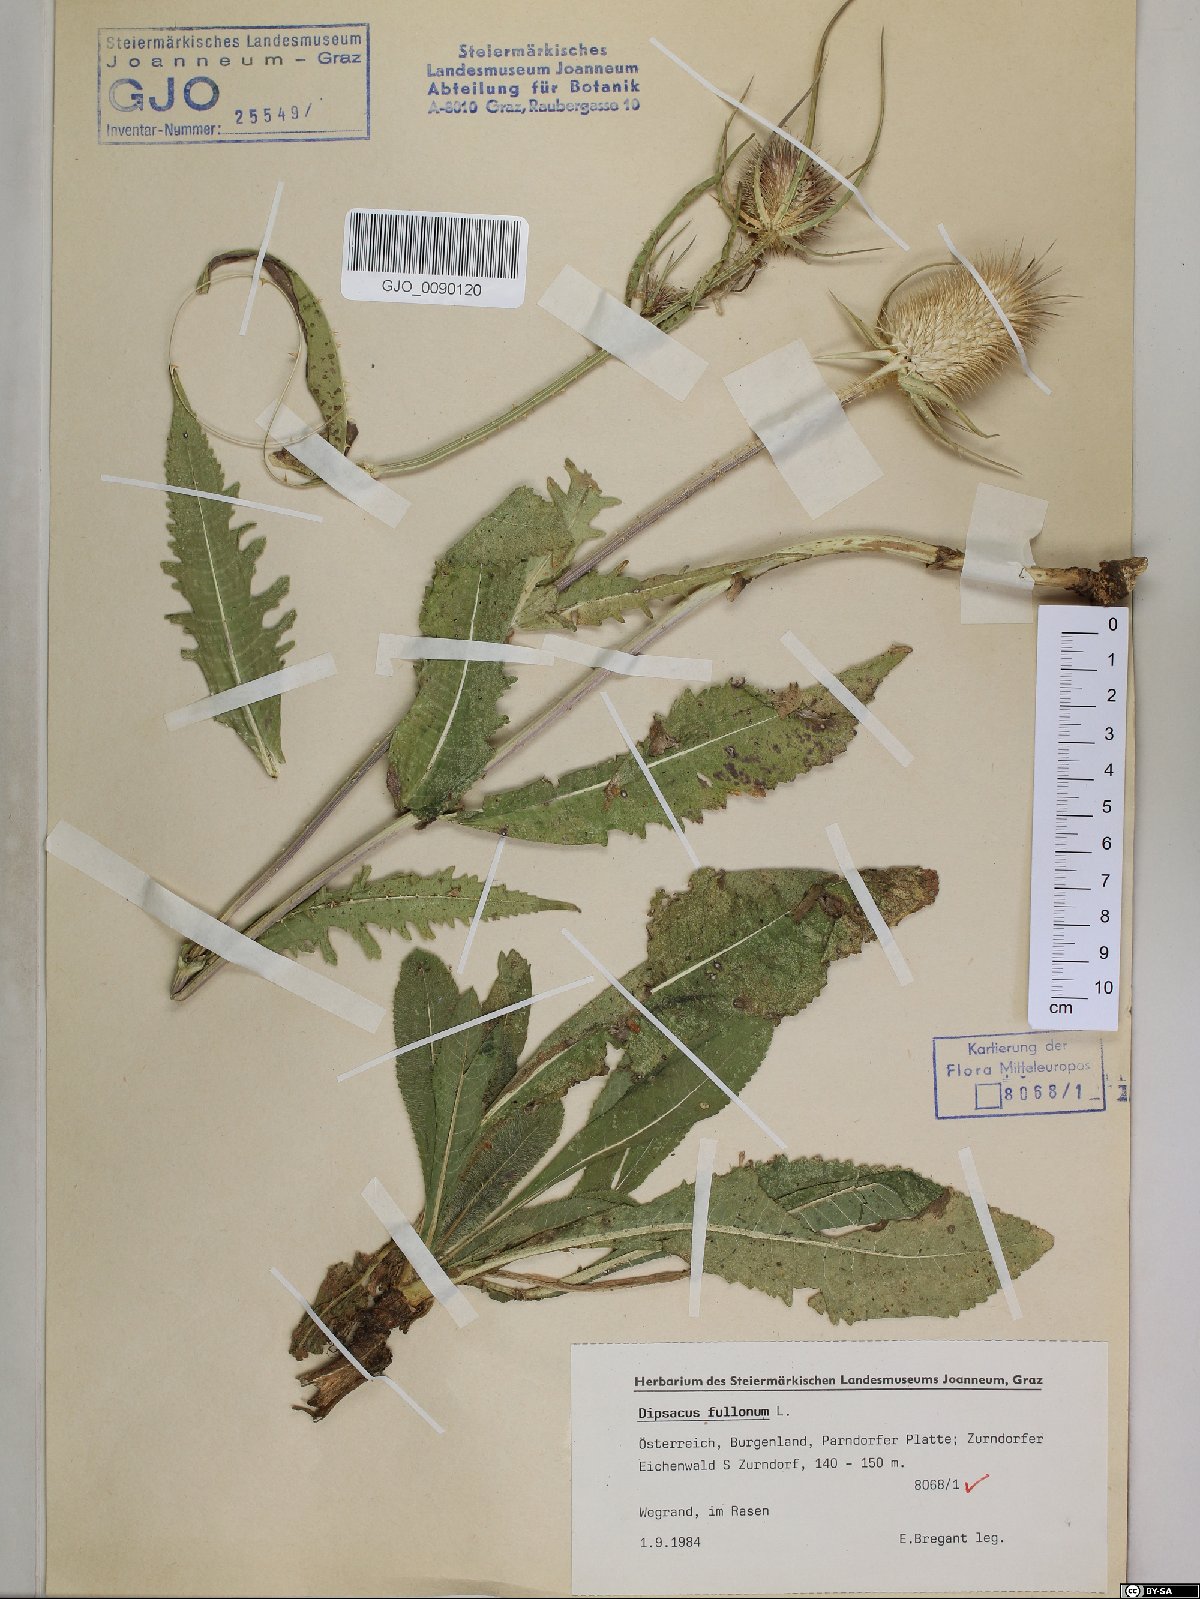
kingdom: Plantae
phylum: Tracheophyta
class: Magnoliopsida
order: Dipsacales
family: Caprifoliaceae
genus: Dipsacus
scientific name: Dipsacus laciniatus
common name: Cut-leaved teasel
